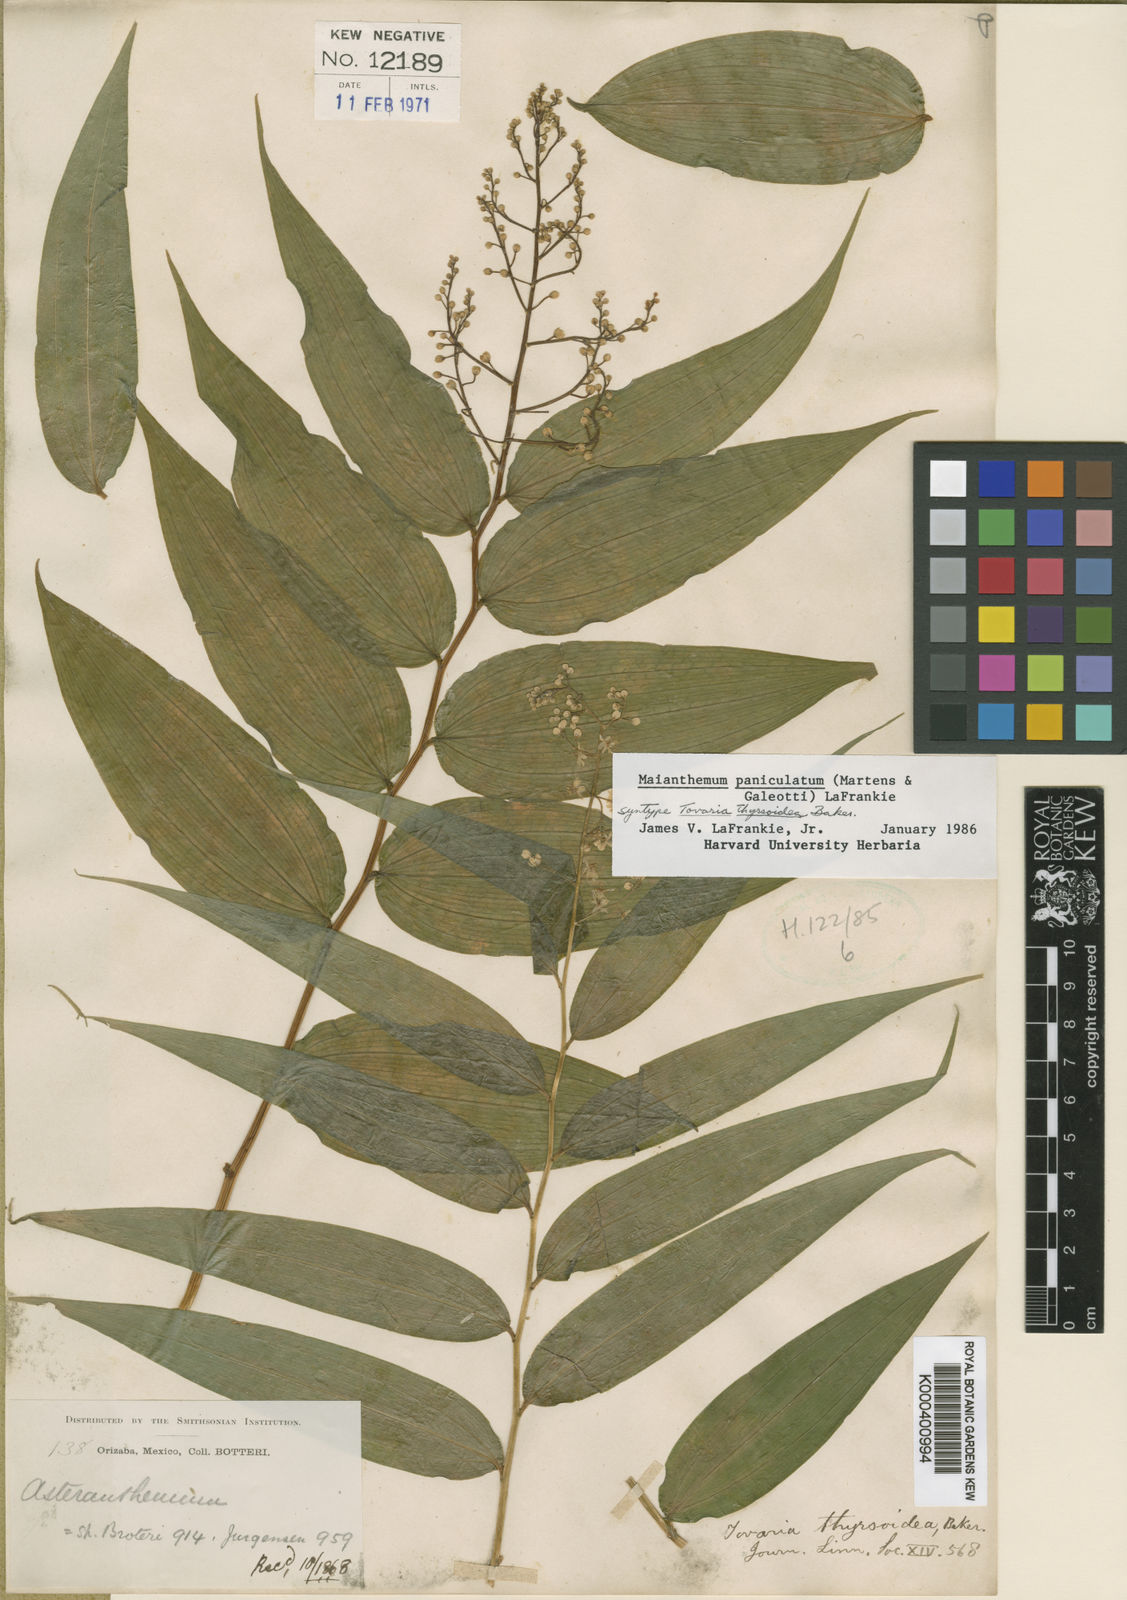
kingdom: Plantae
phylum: Tracheophyta
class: Liliopsida
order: Asparagales
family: Asparagaceae
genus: Maianthemum
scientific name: Maianthemum paniculatum
